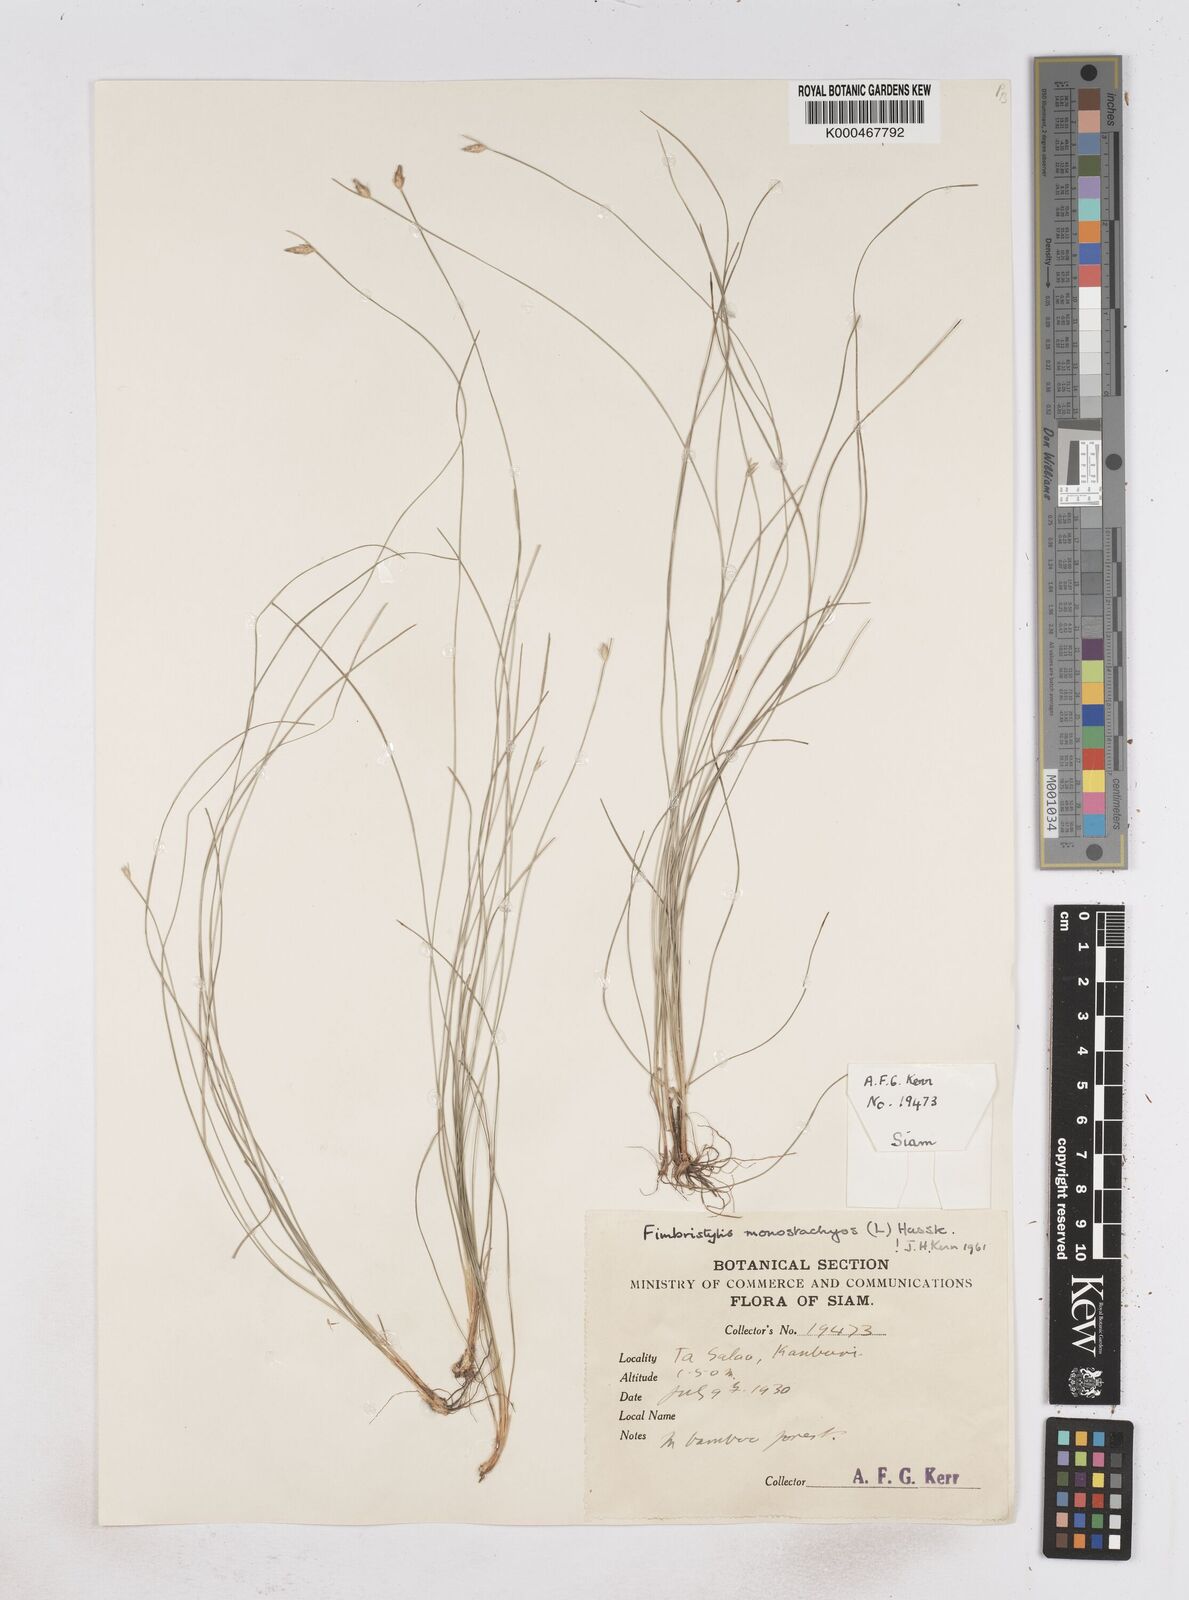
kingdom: Plantae
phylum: Tracheophyta
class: Liliopsida
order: Poales
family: Cyperaceae
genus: Abildgaardia
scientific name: Abildgaardia ovata
